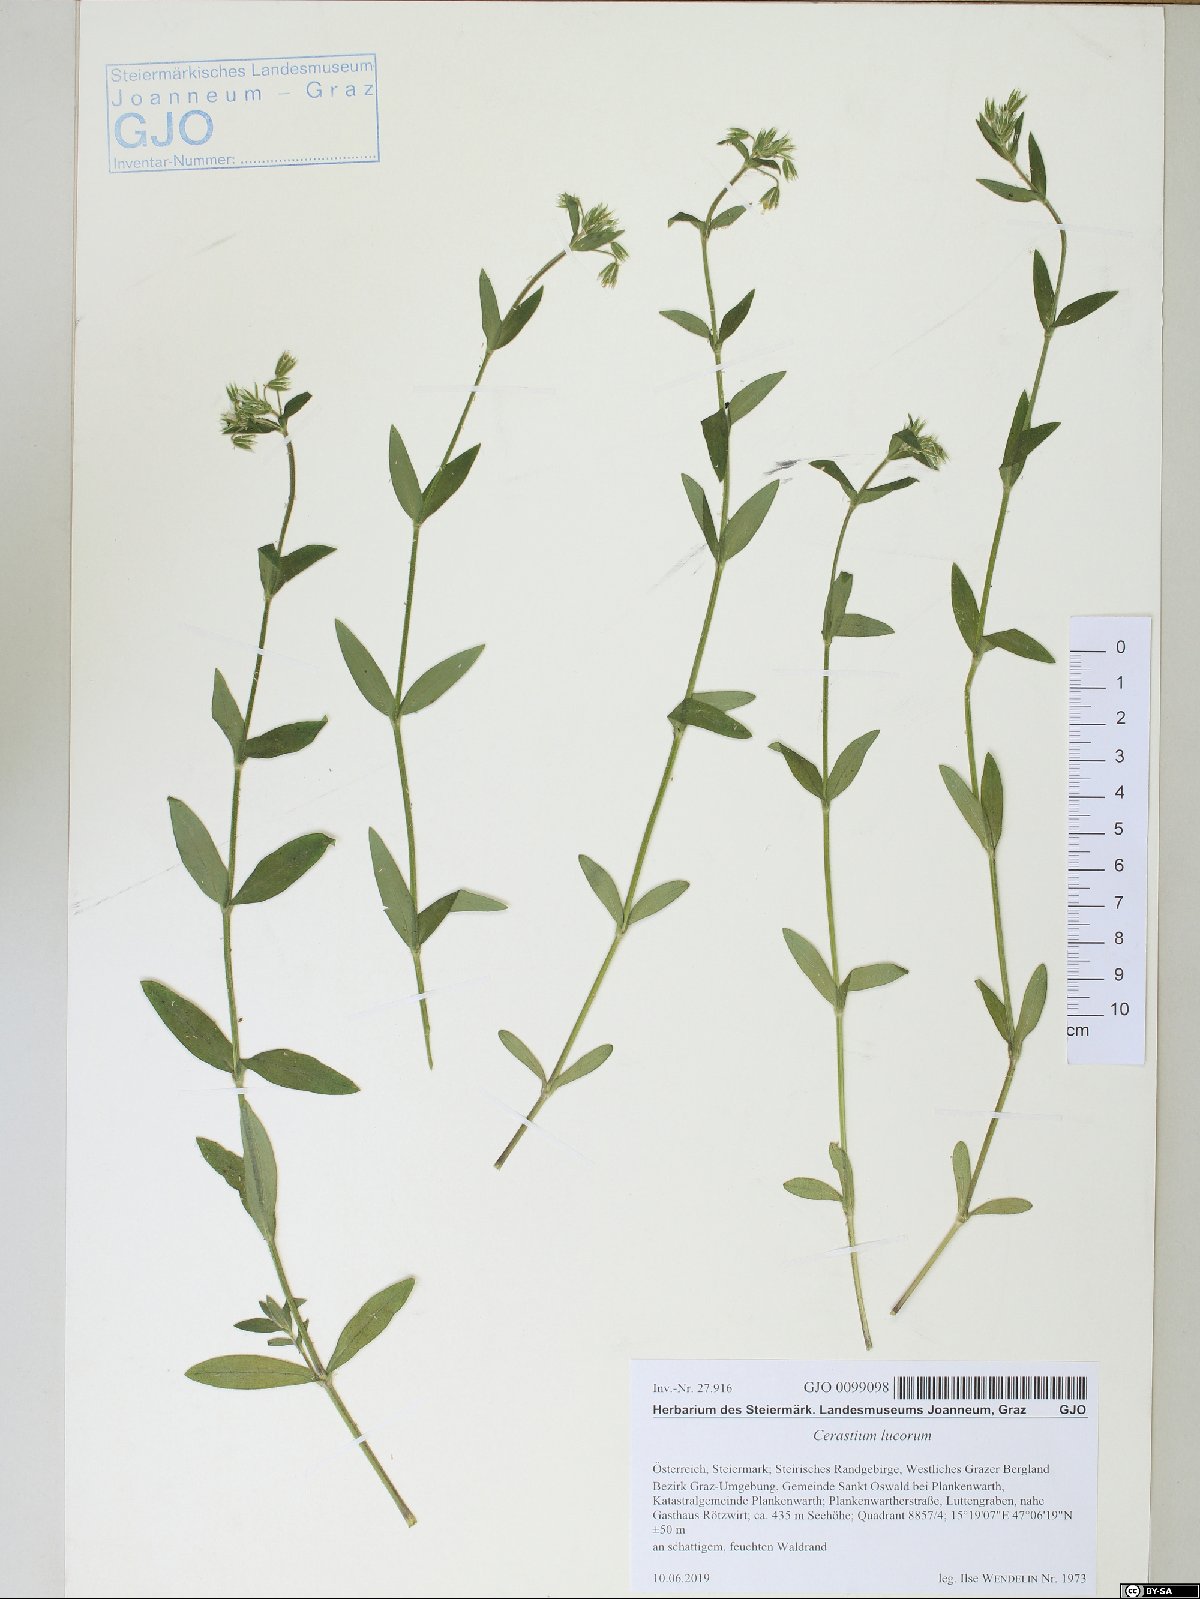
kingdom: Plantae
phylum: Tracheophyta
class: Magnoliopsida
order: Caryophyllales
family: Caryophyllaceae
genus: Cerastium
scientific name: Cerastium lucorum
